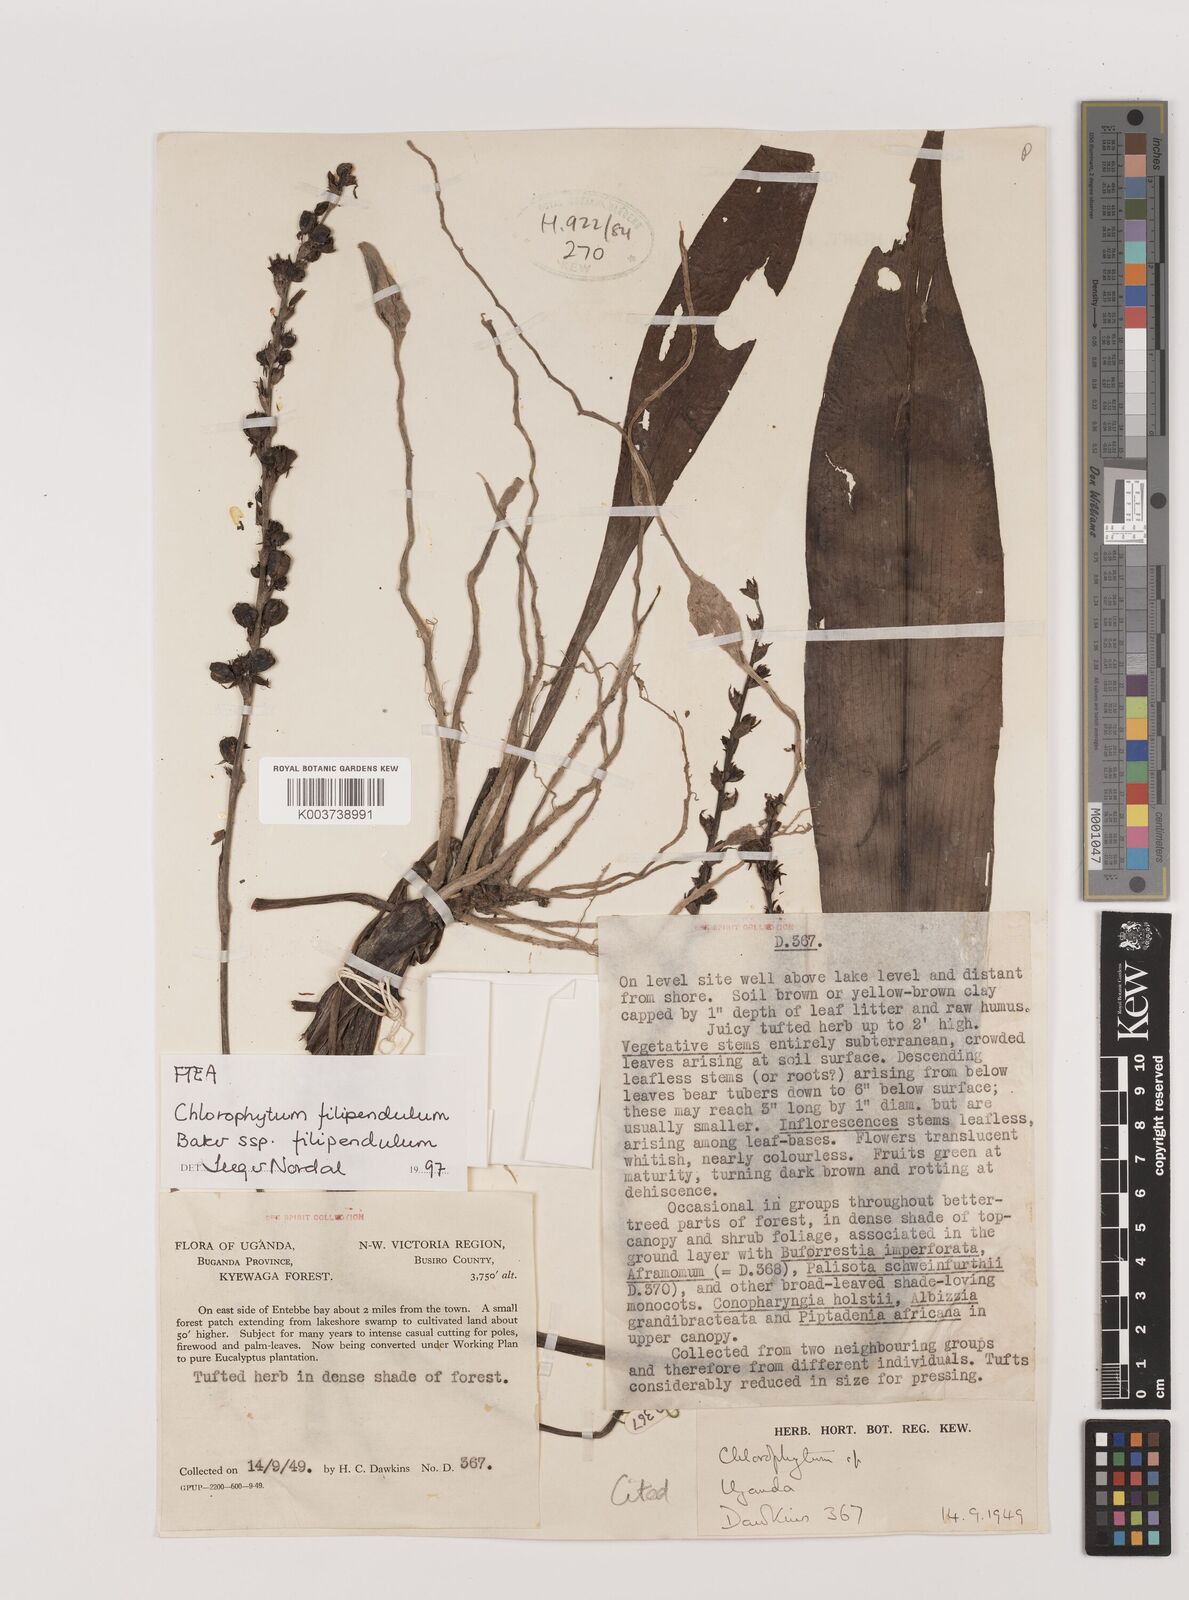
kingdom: Plantae
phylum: Tracheophyta
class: Liliopsida
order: Asparagales
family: Asparagaceae
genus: Chlorophytum
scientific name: Chlorophytum filipendulum
